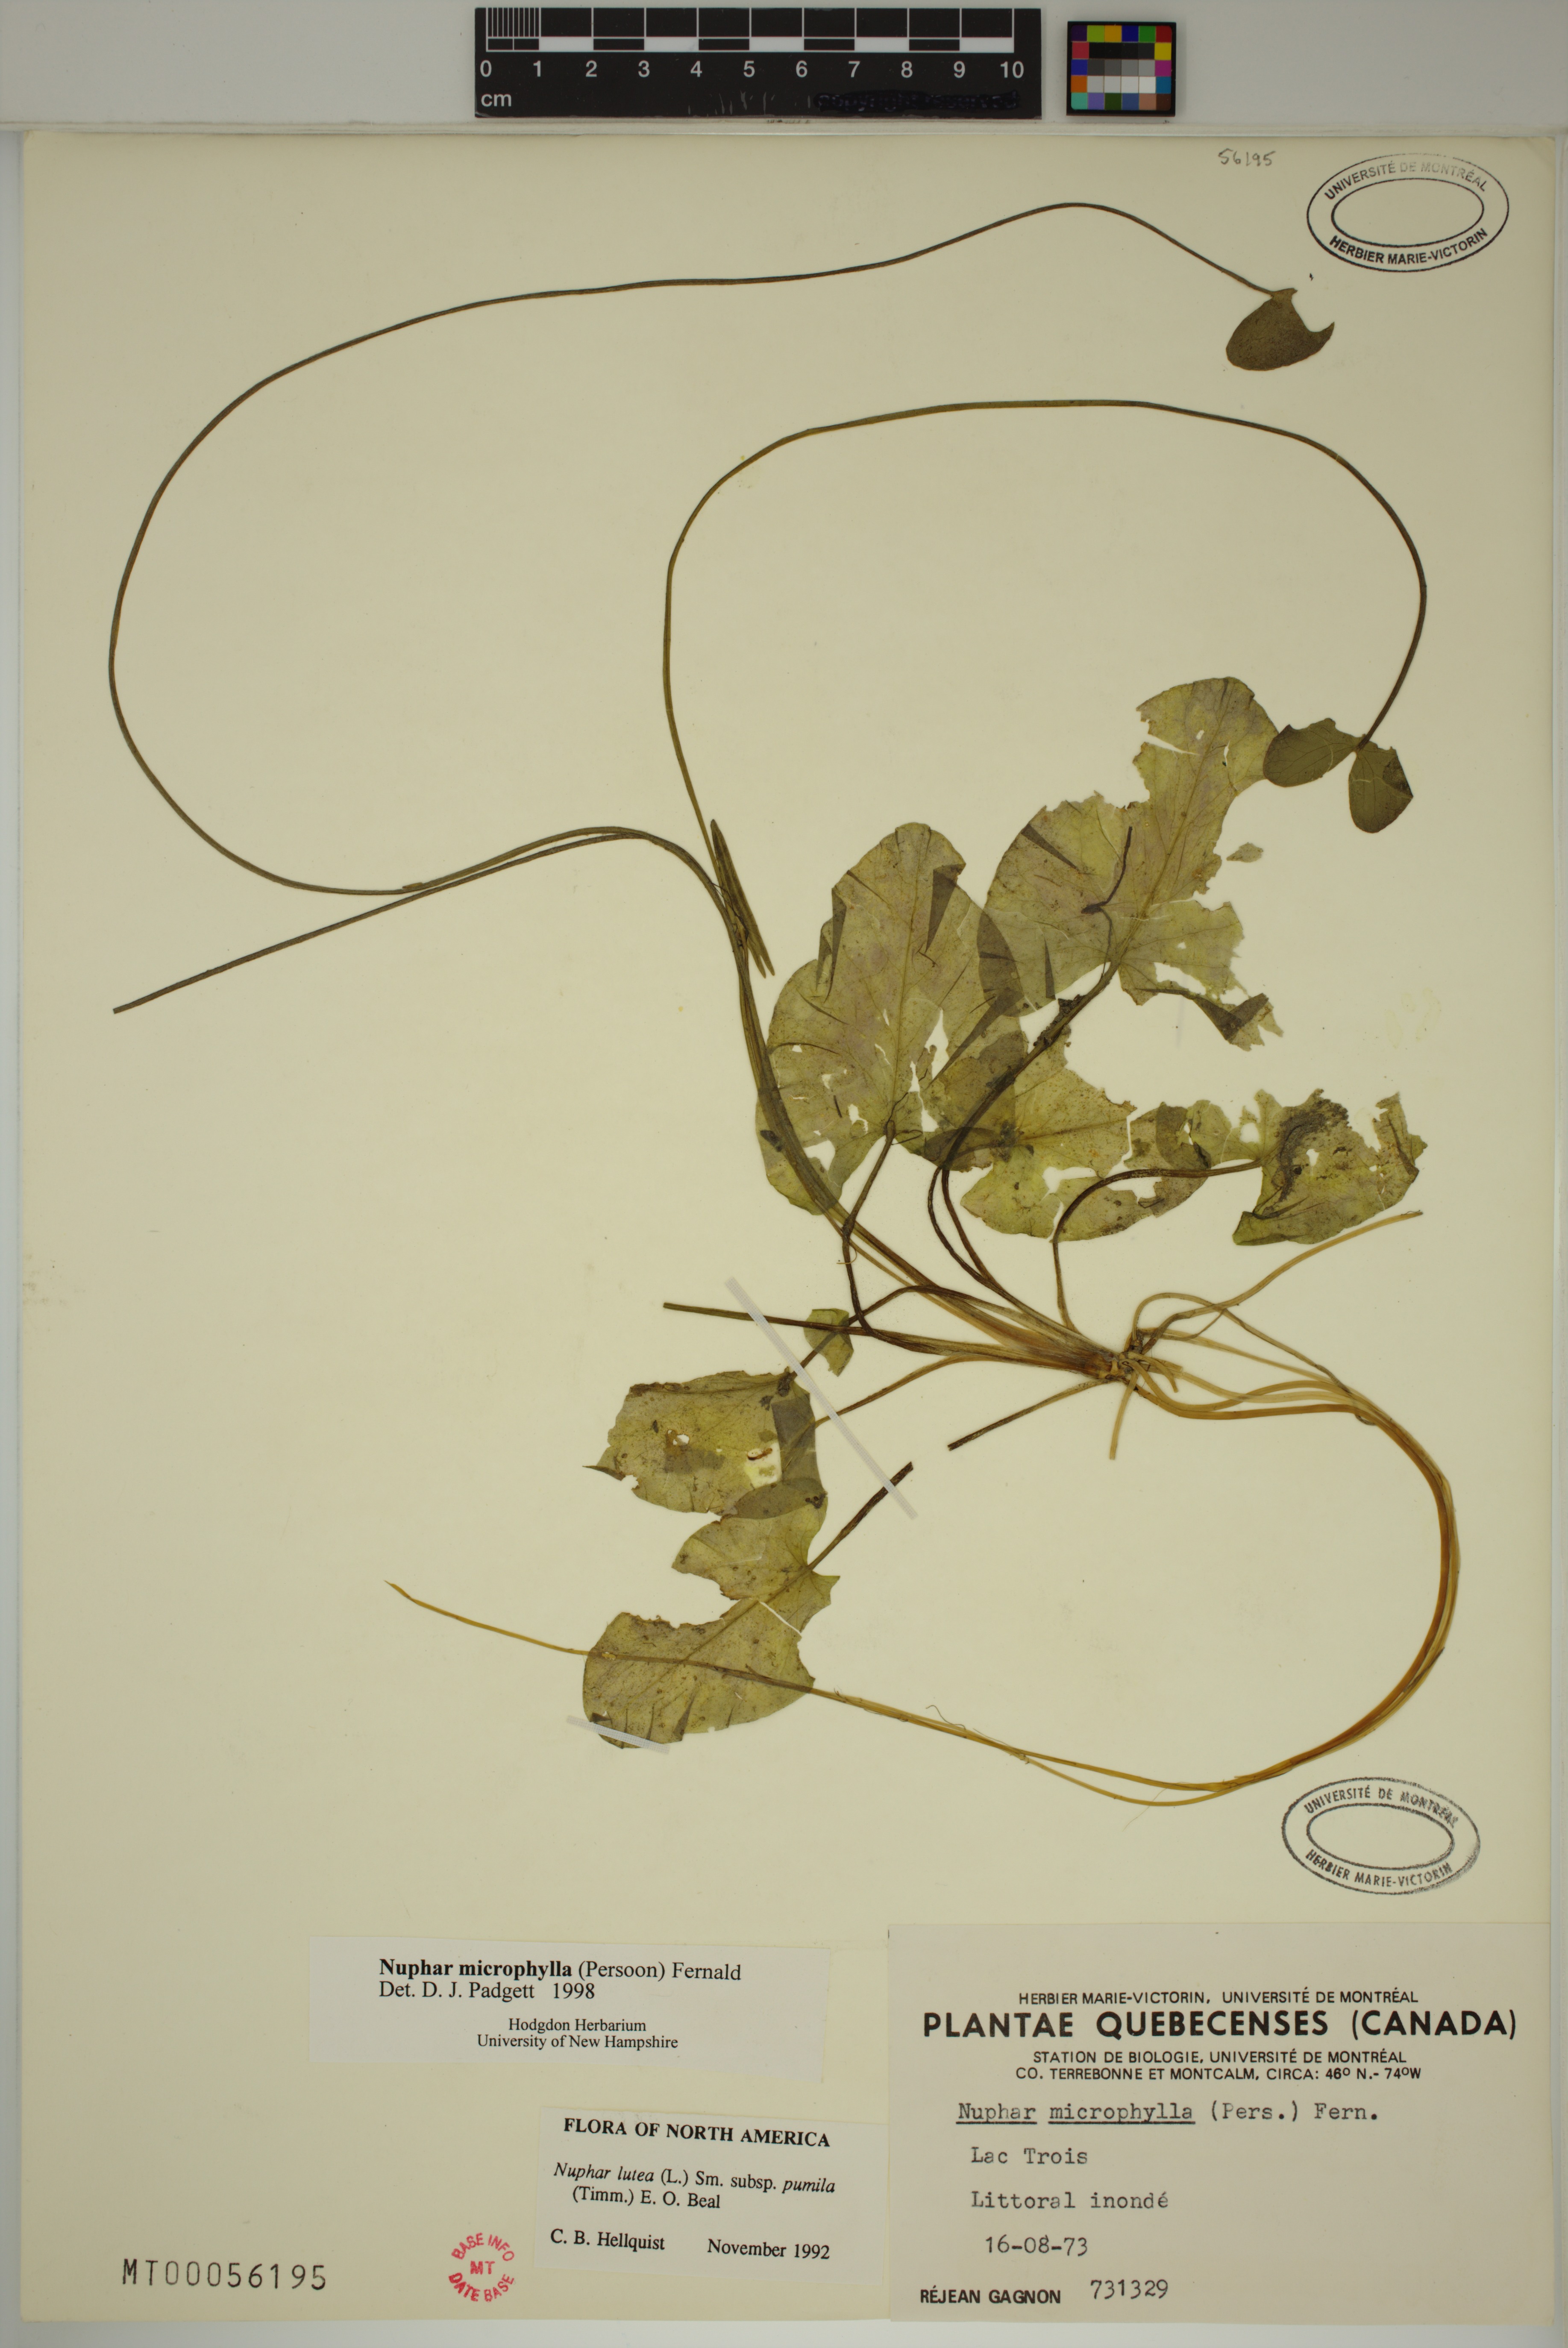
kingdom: Plantae
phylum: Tracheophyta
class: Magnoliopsida
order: Nymphaeales
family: Nymphaeaceae
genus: Nuphar
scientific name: Nuphar microphylla
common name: Small pond-lily
